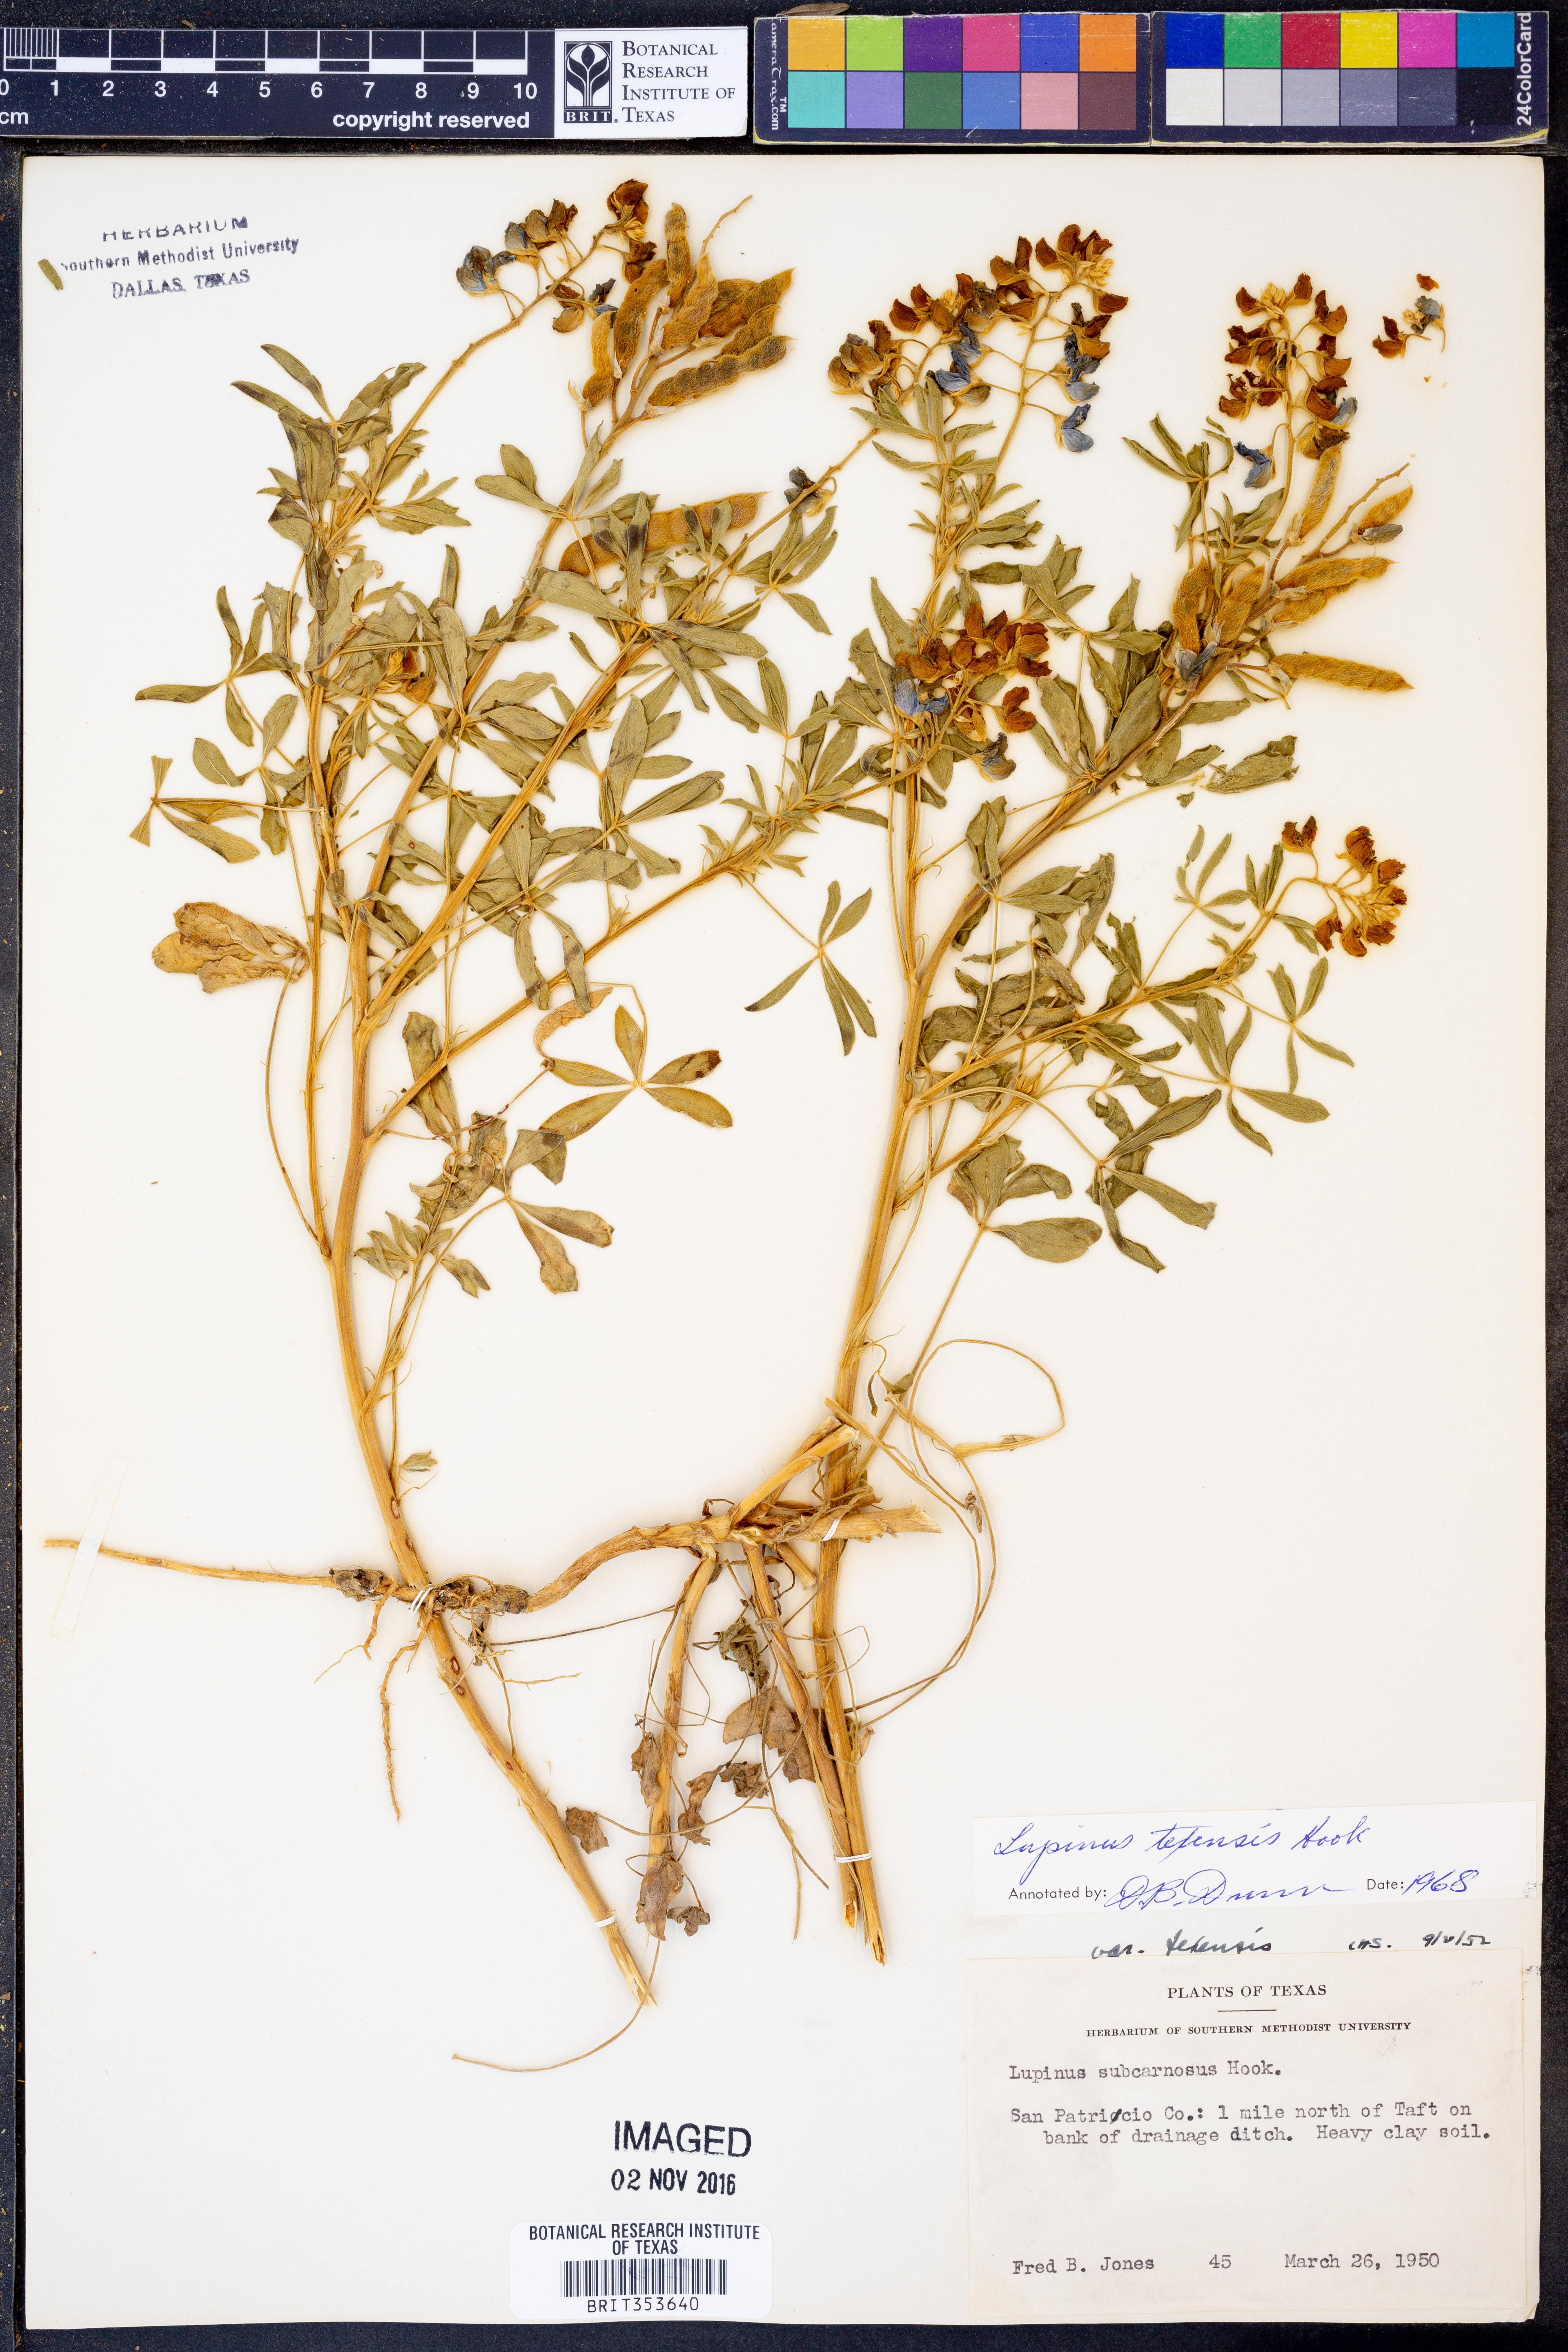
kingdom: Plantae
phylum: Tracheophyta
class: Magnoliopsida
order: Fabales
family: Fabaceae
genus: Lupinus
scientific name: Lupinus texensis
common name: Texas bluebonnet
